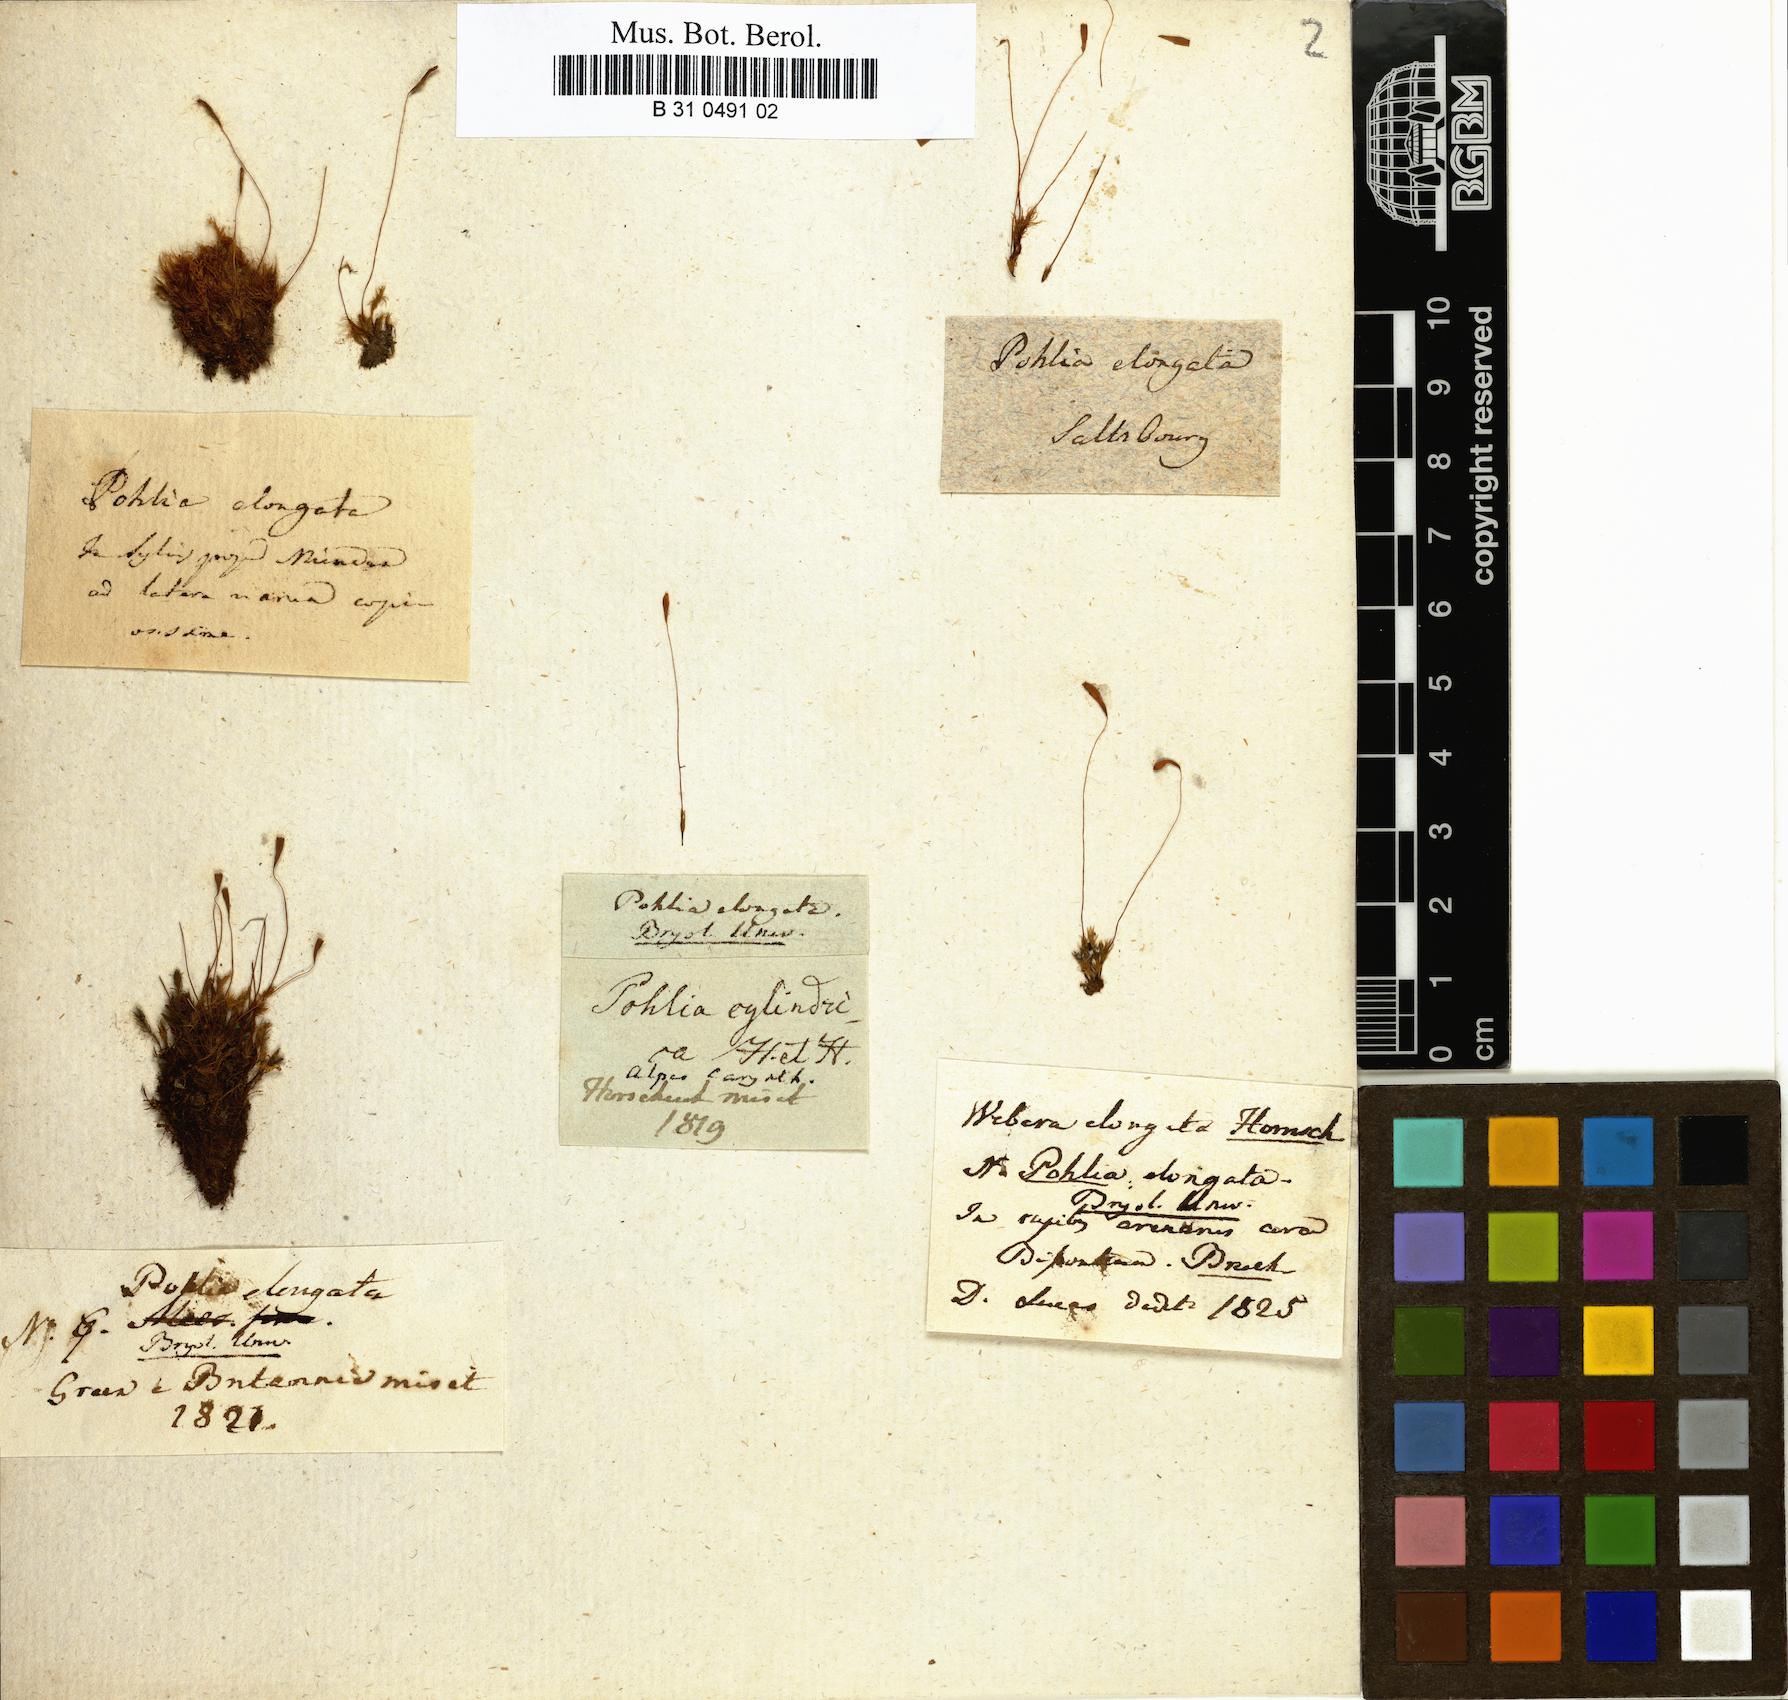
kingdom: Plantae
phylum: Bryophyta
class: Bryopsida
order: Bryales
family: Mniaceae
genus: Pohlia
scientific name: Pohlia elongata
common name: Long-fruited thread-moss
